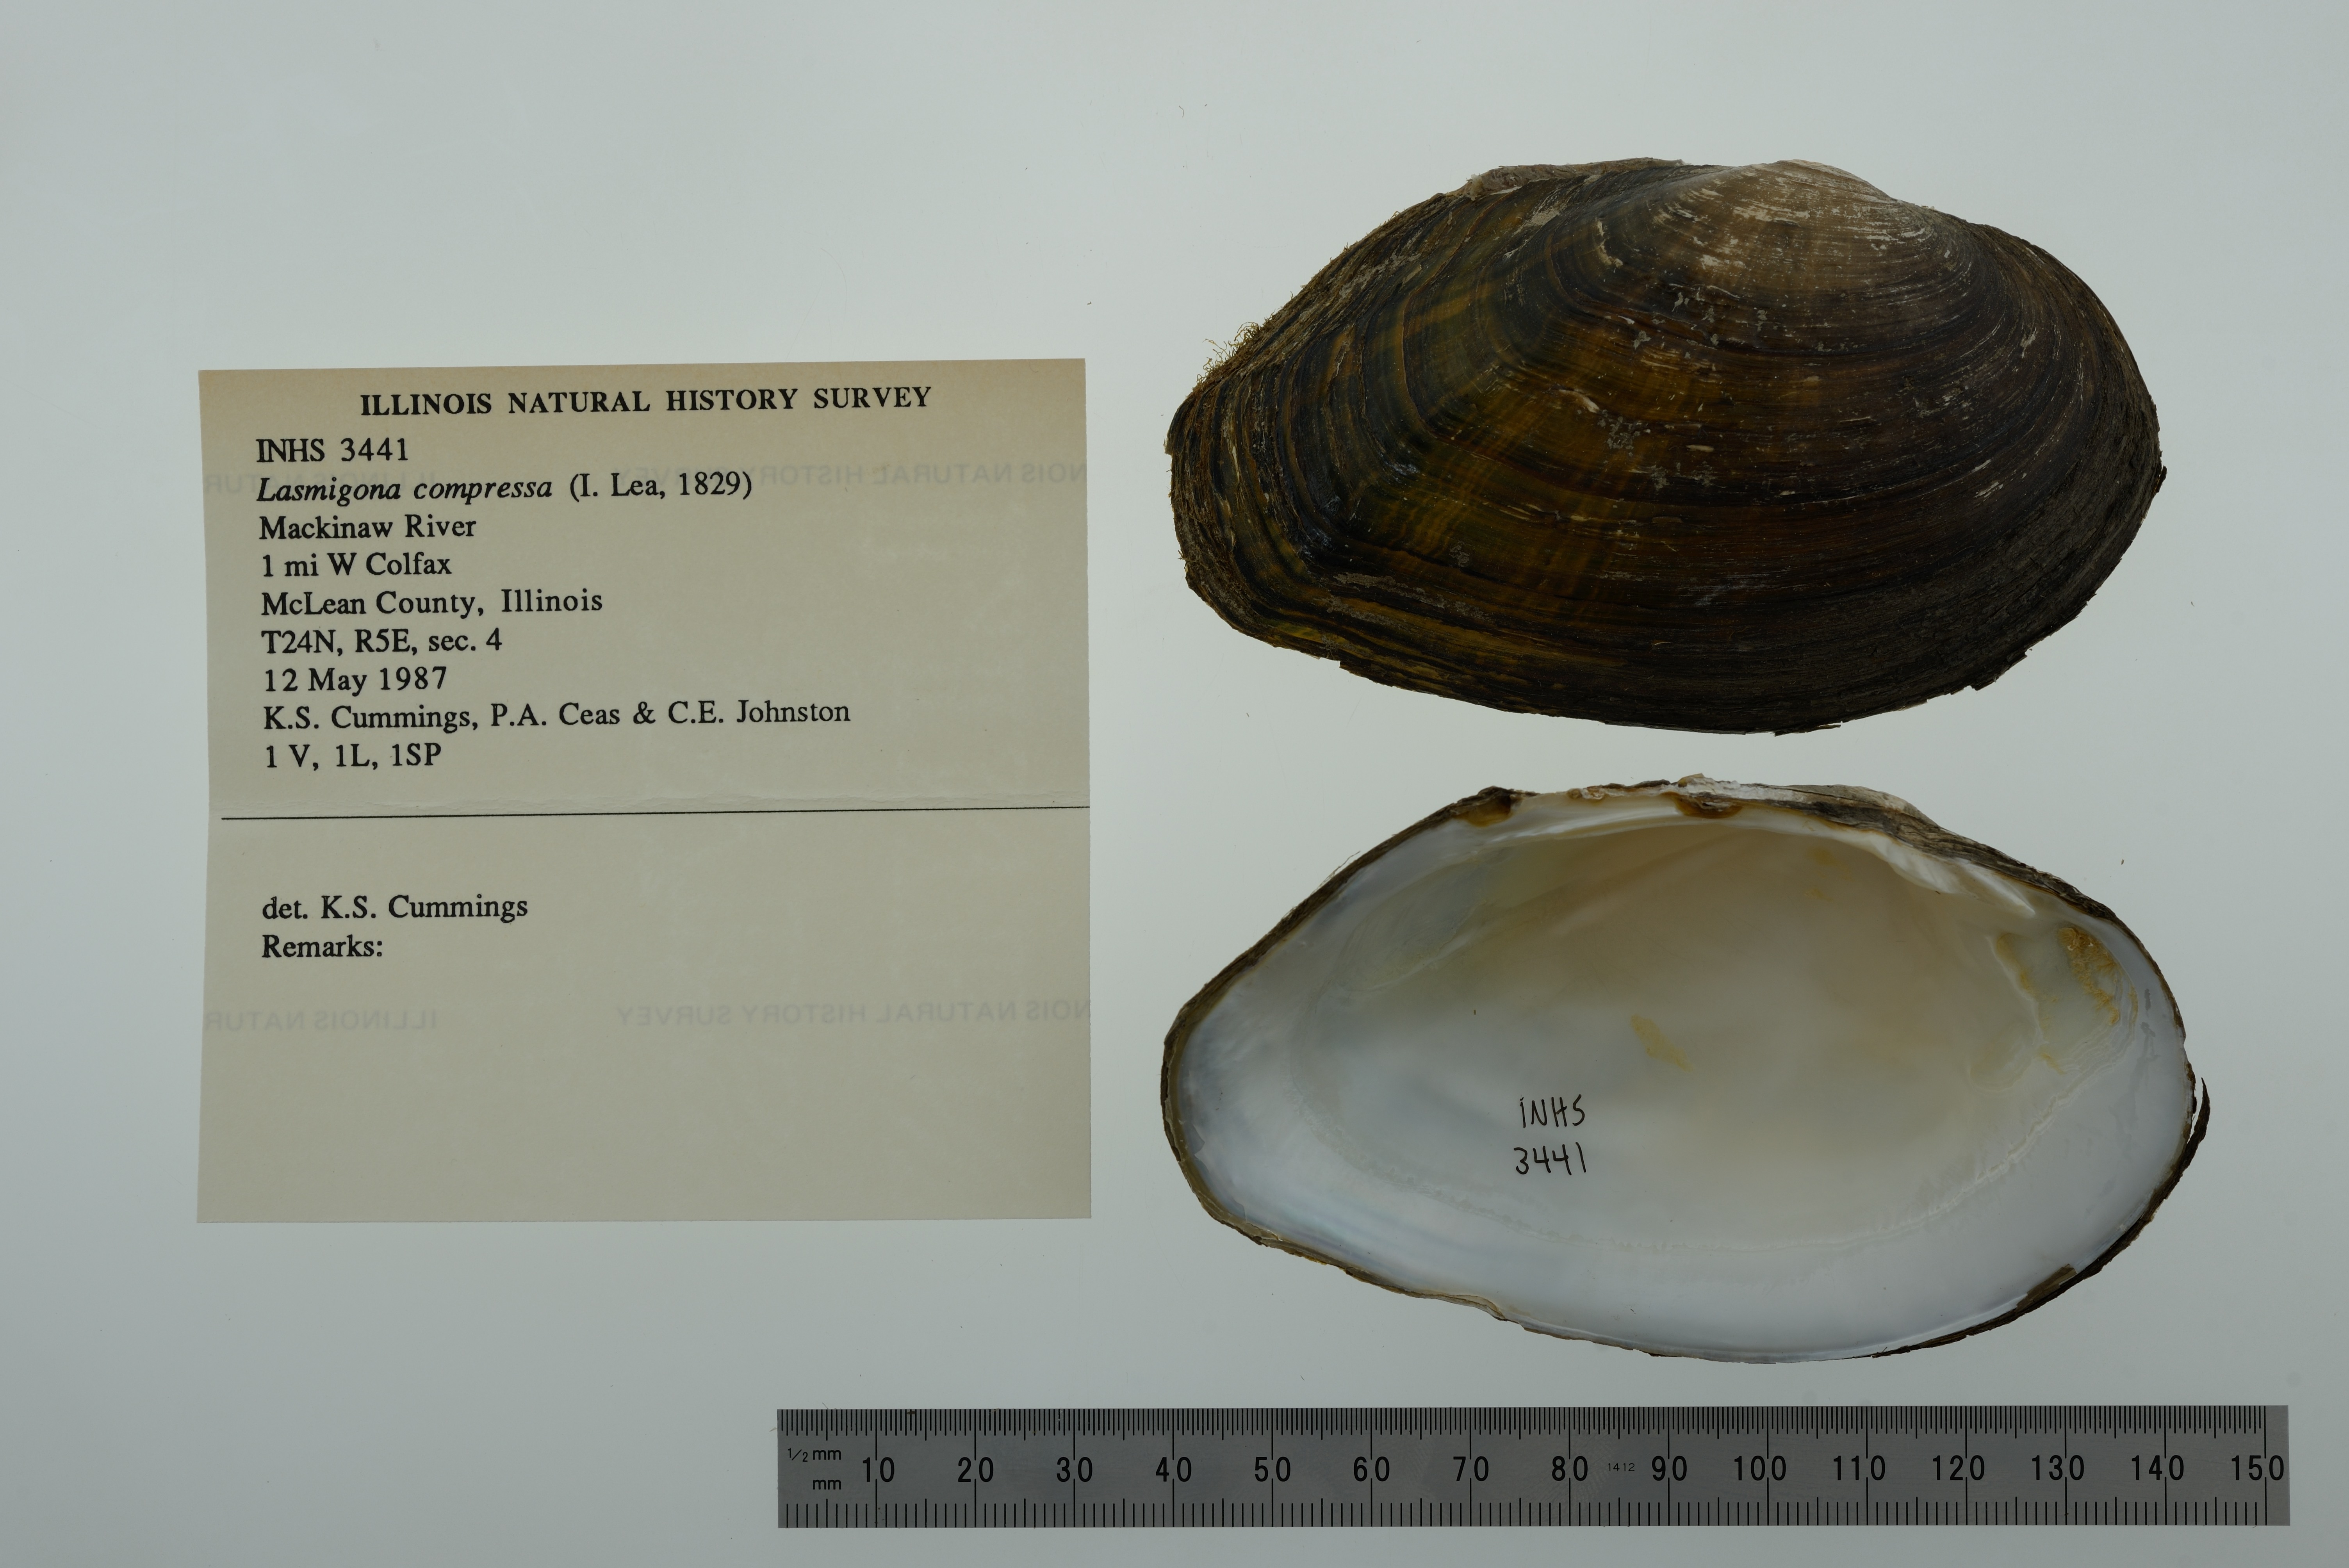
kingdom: Animalia
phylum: Mollusca
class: Bivalvia
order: Unionida
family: Unionidae
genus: Lasmigona
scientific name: Lasmigona compressa
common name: Creek heelsplitter
